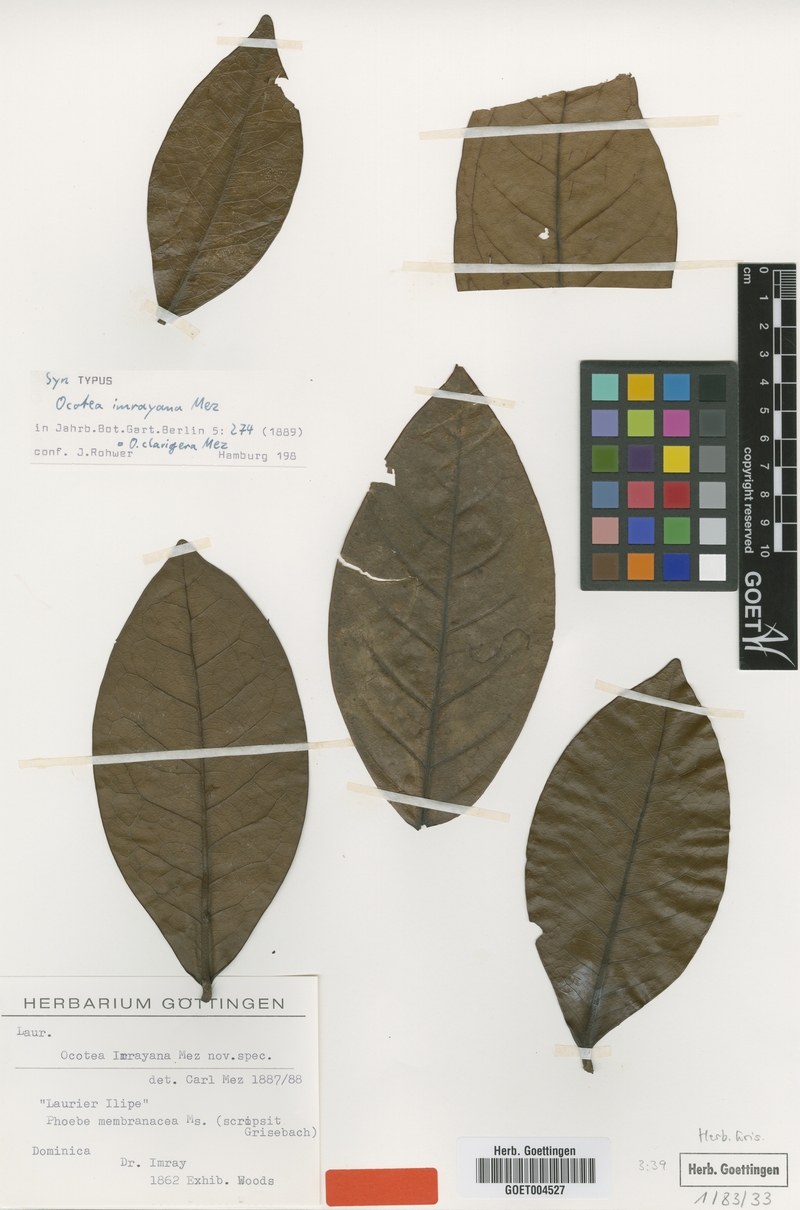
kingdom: Plantae
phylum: Tracheophyta
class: Magnoliopsida
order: Laurales
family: Lauraceae
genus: Ocotea
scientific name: Ocotea clavigera
